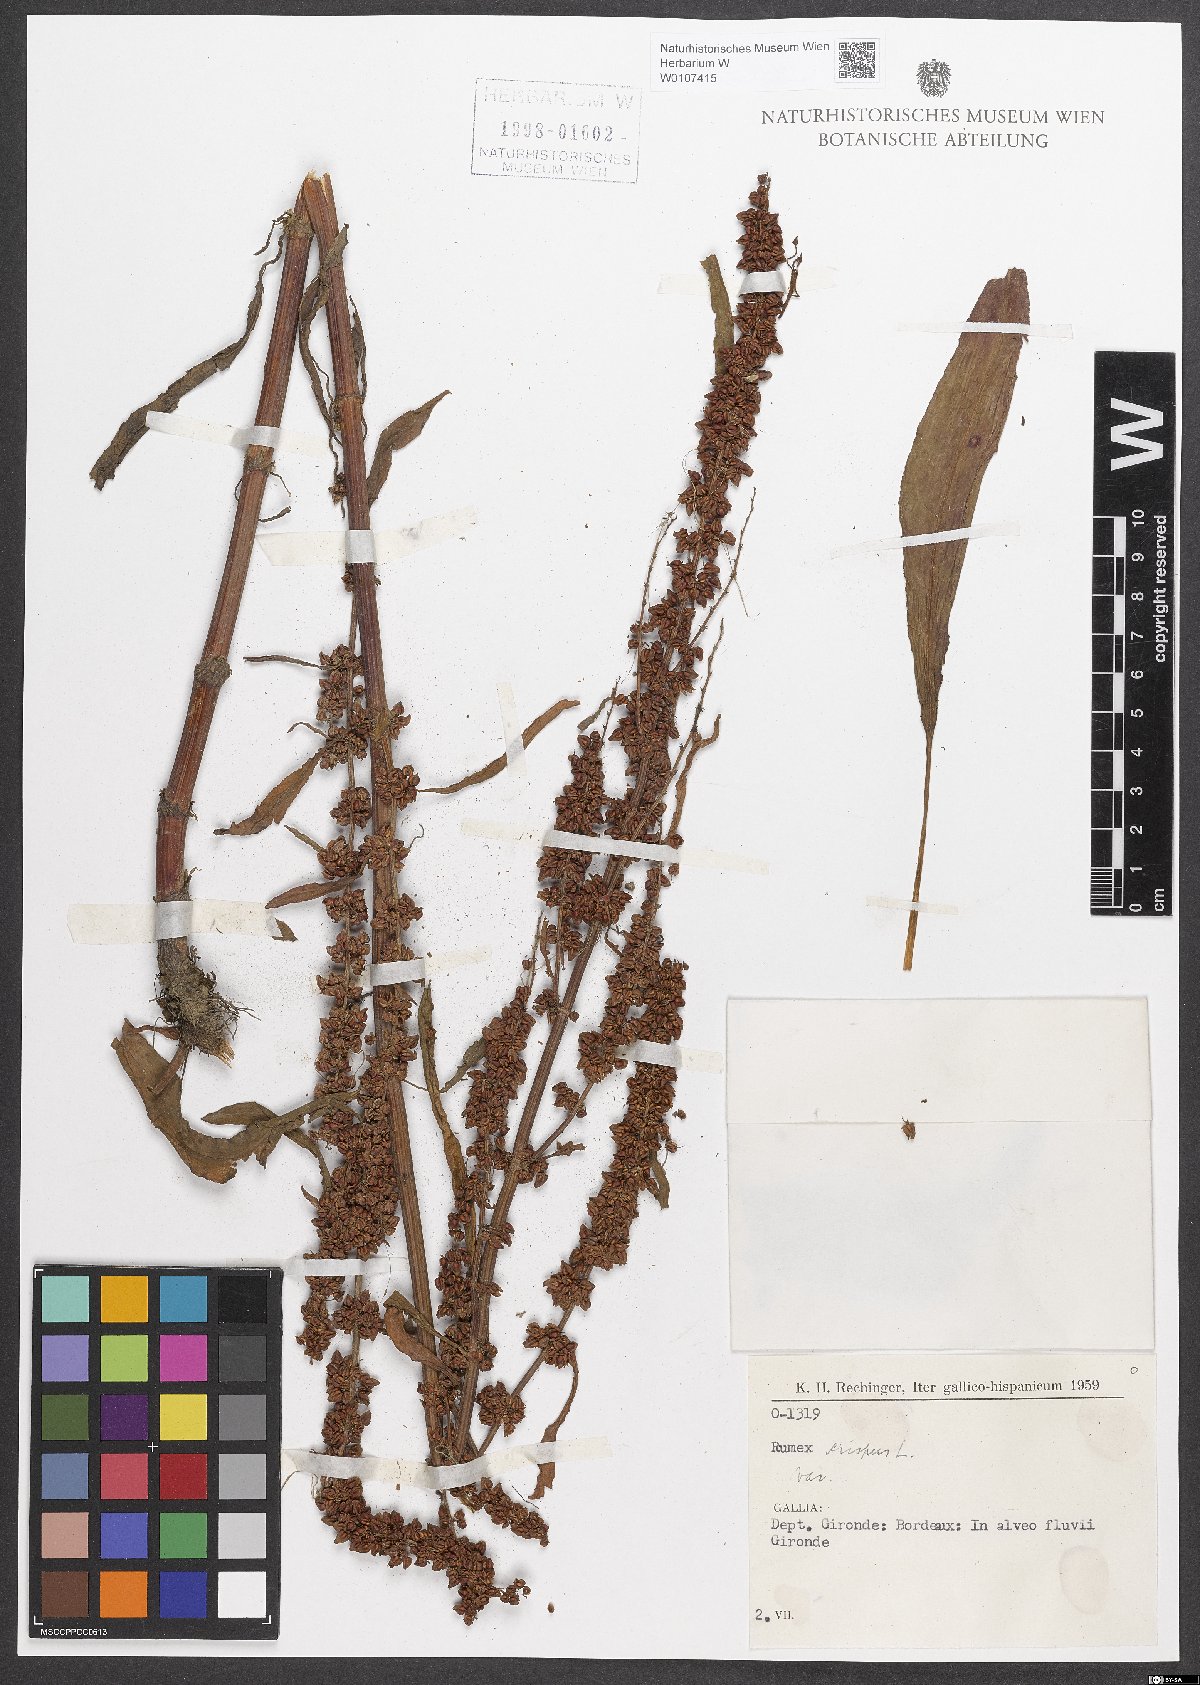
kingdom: Plantae
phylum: Tracheophyta
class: Magnoliopsida
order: Caryophyllales
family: Polygonaceae
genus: Rumex
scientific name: Rumex crispus
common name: Curled dock
